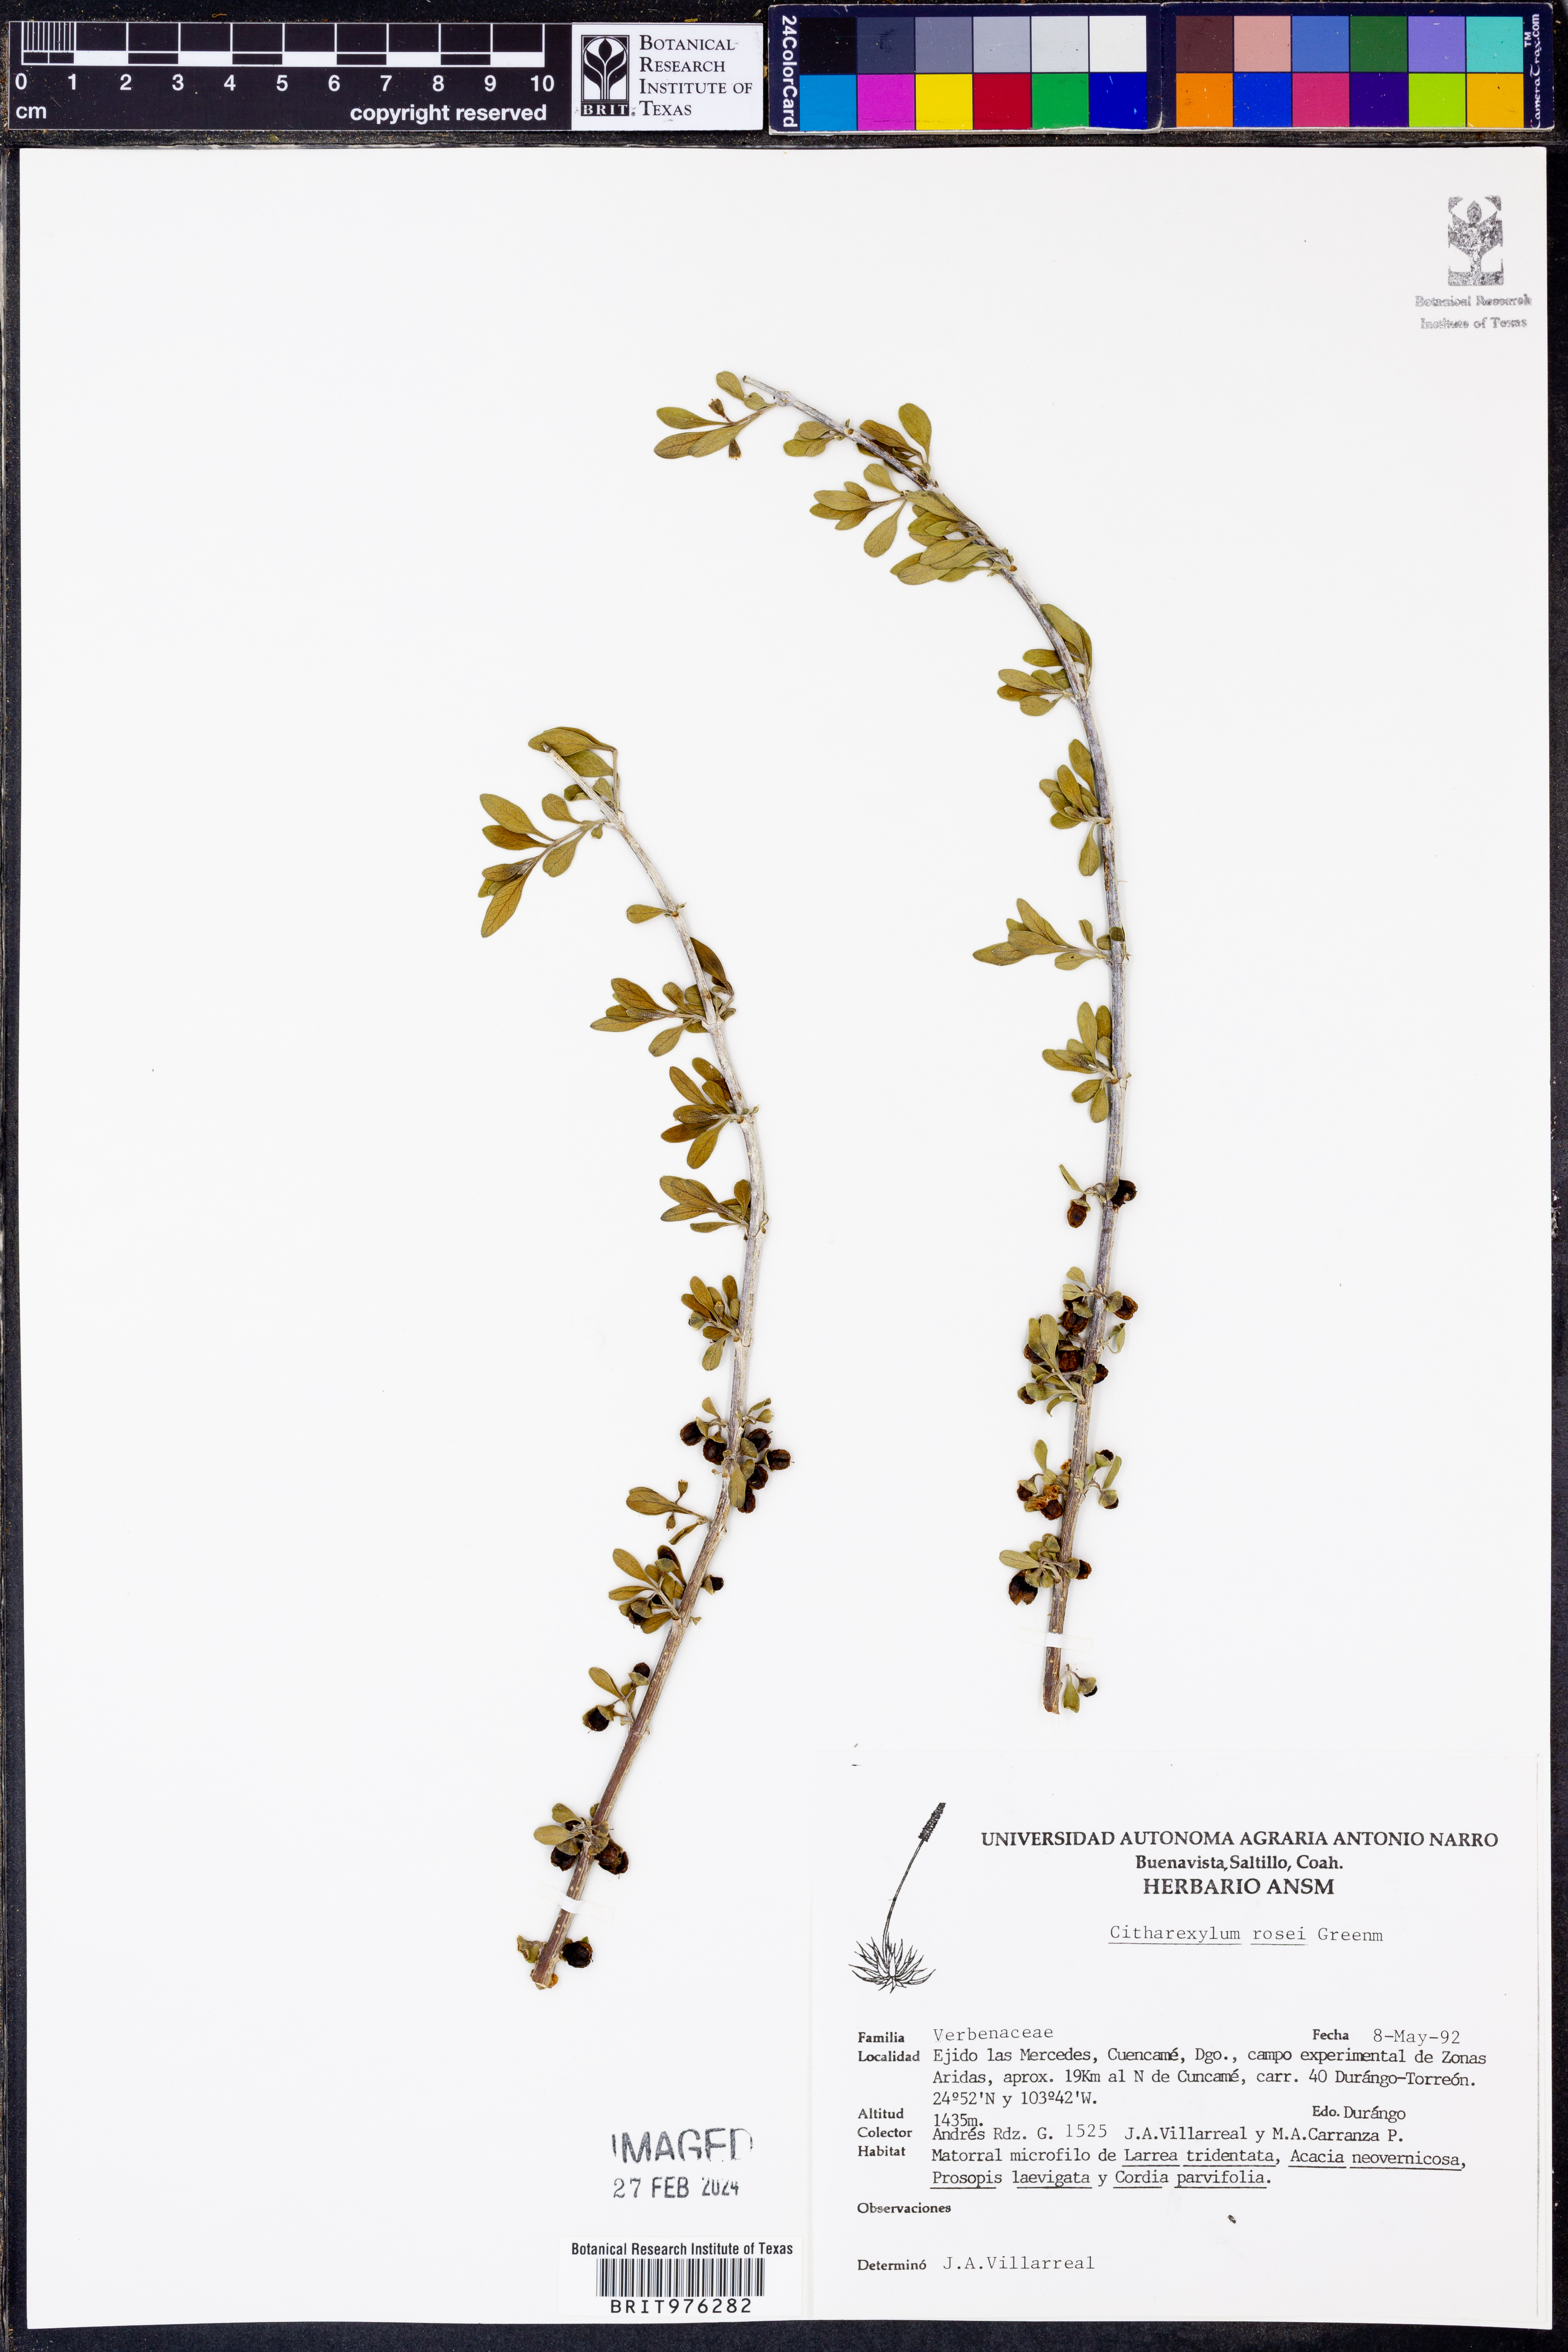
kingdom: Plantae
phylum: Tracheophyta
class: Magnoliopsida
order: Lamiales
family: Verbenaceae
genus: Citharexylum
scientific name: Citharexylum
